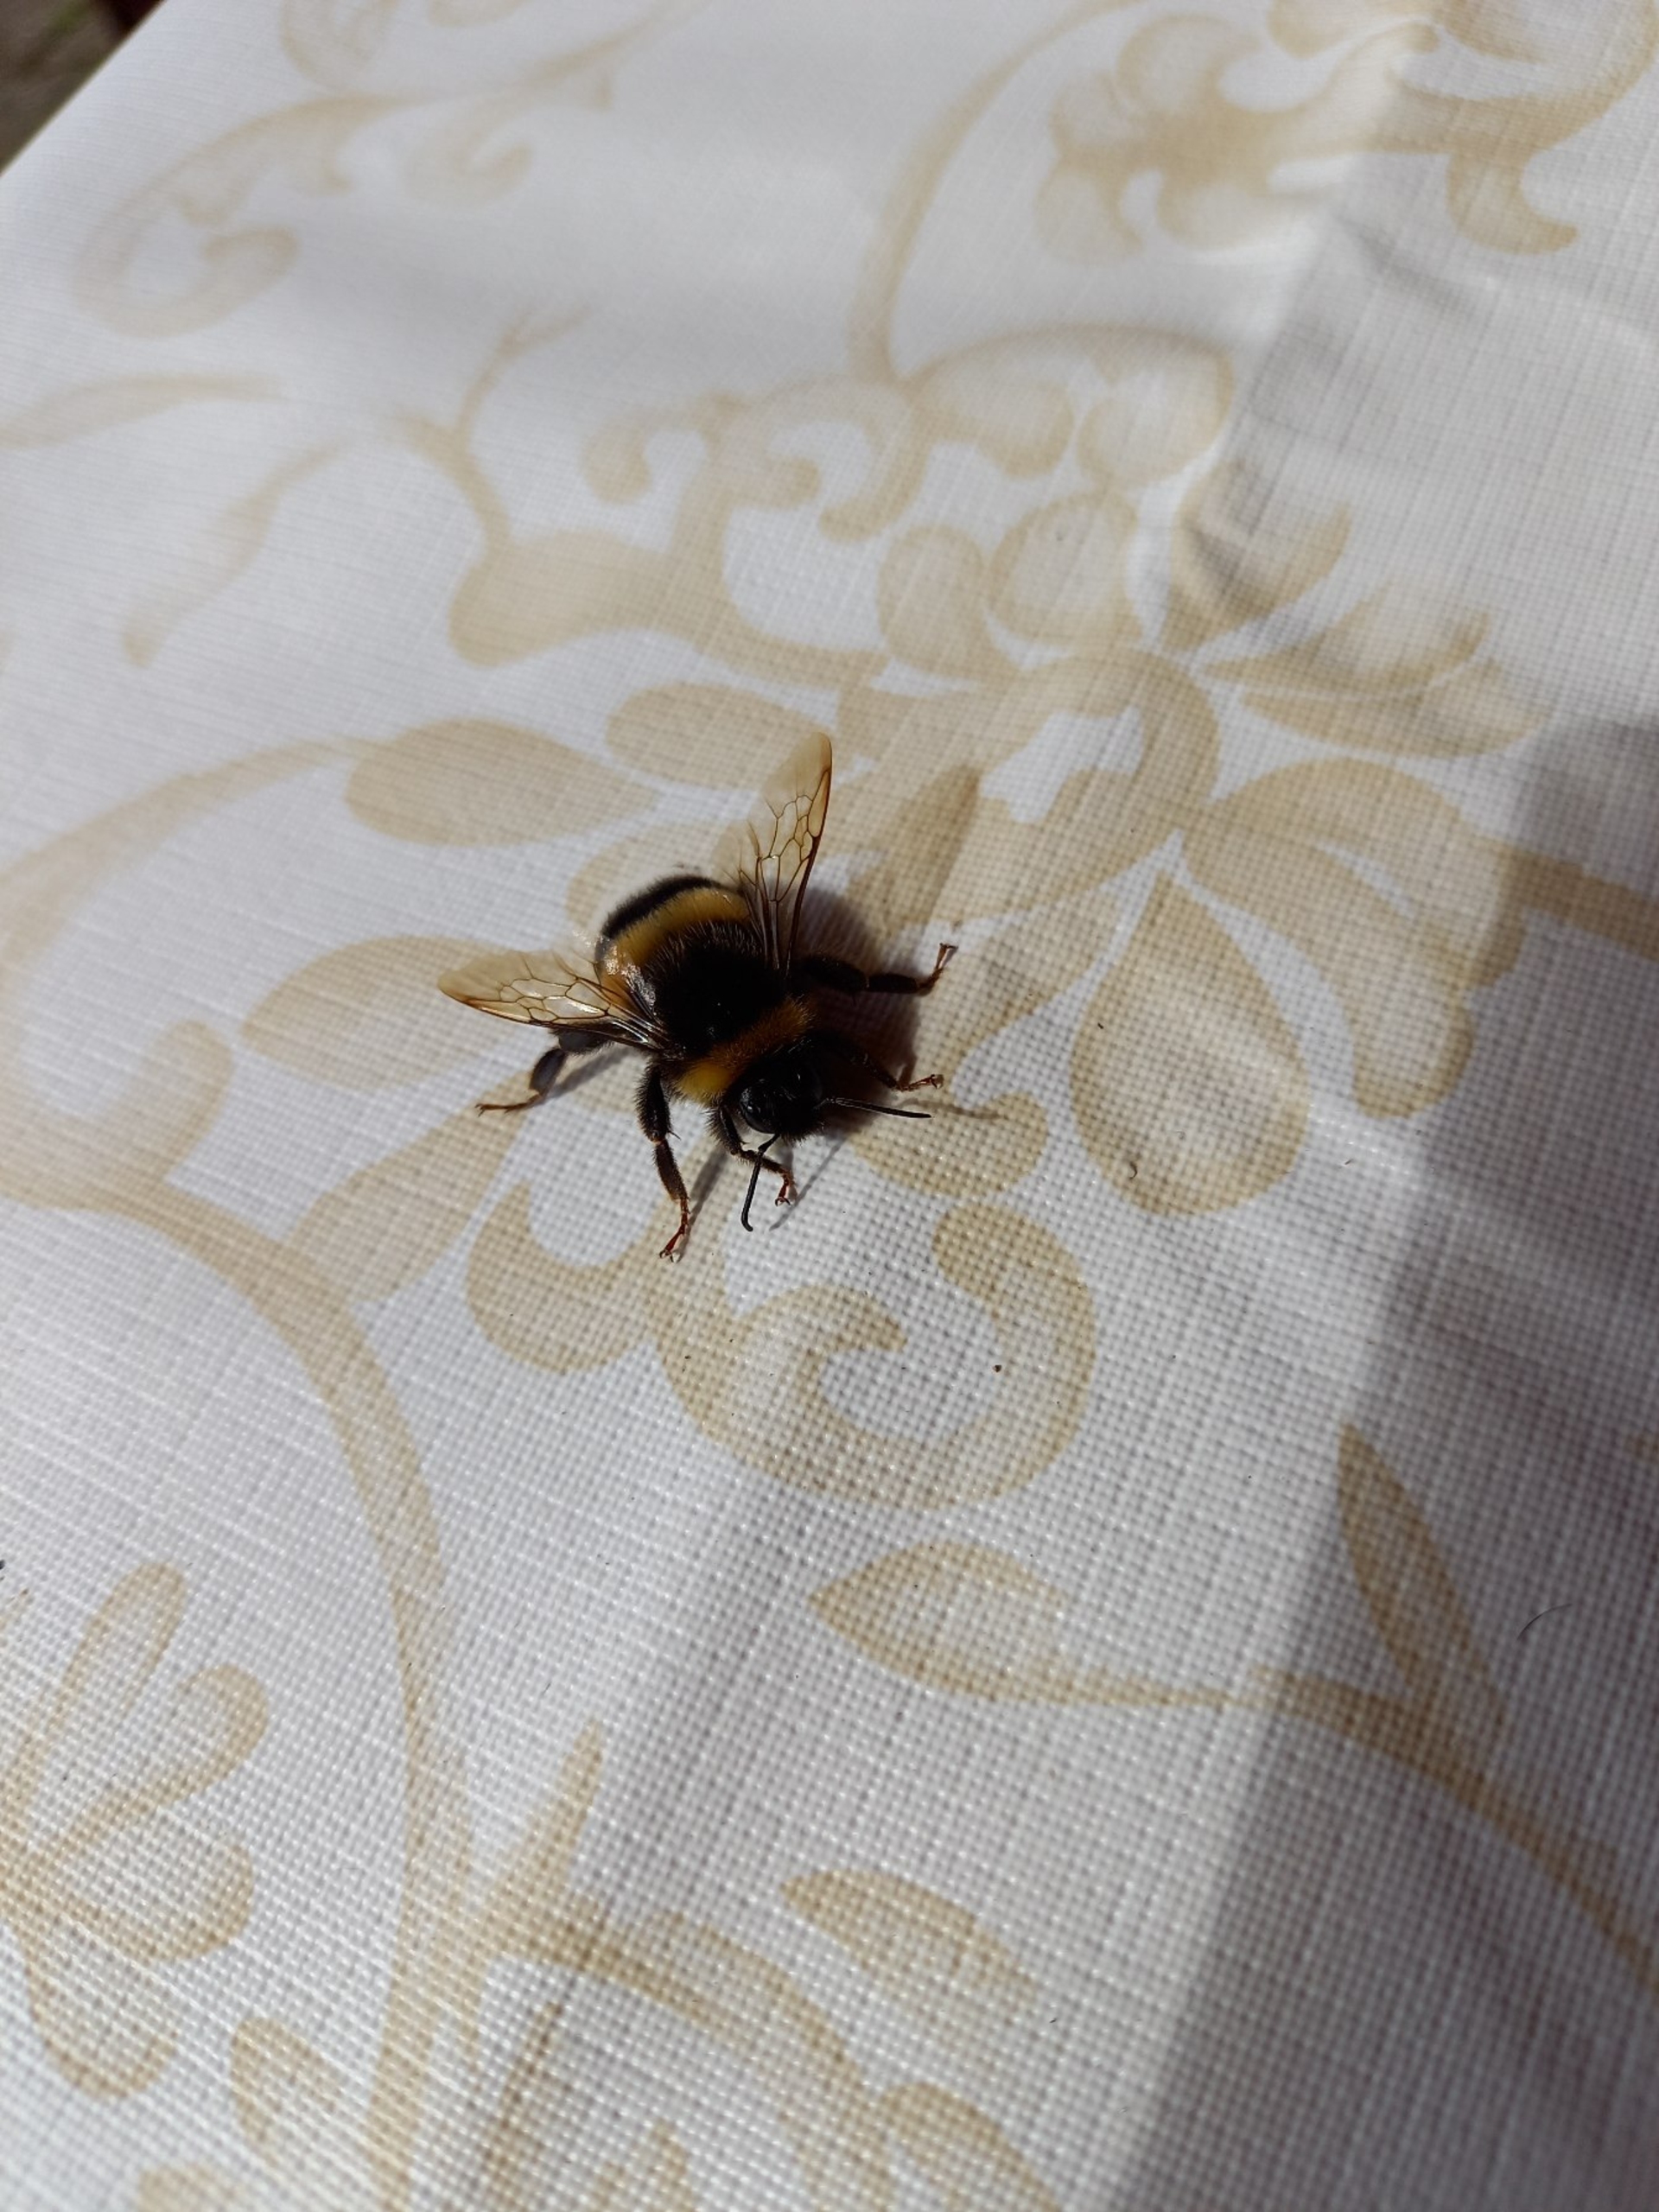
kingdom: Animalia
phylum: Arthropoda
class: Insecta
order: Hymenoptera
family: Apidae
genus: Bombus
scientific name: Bombus
